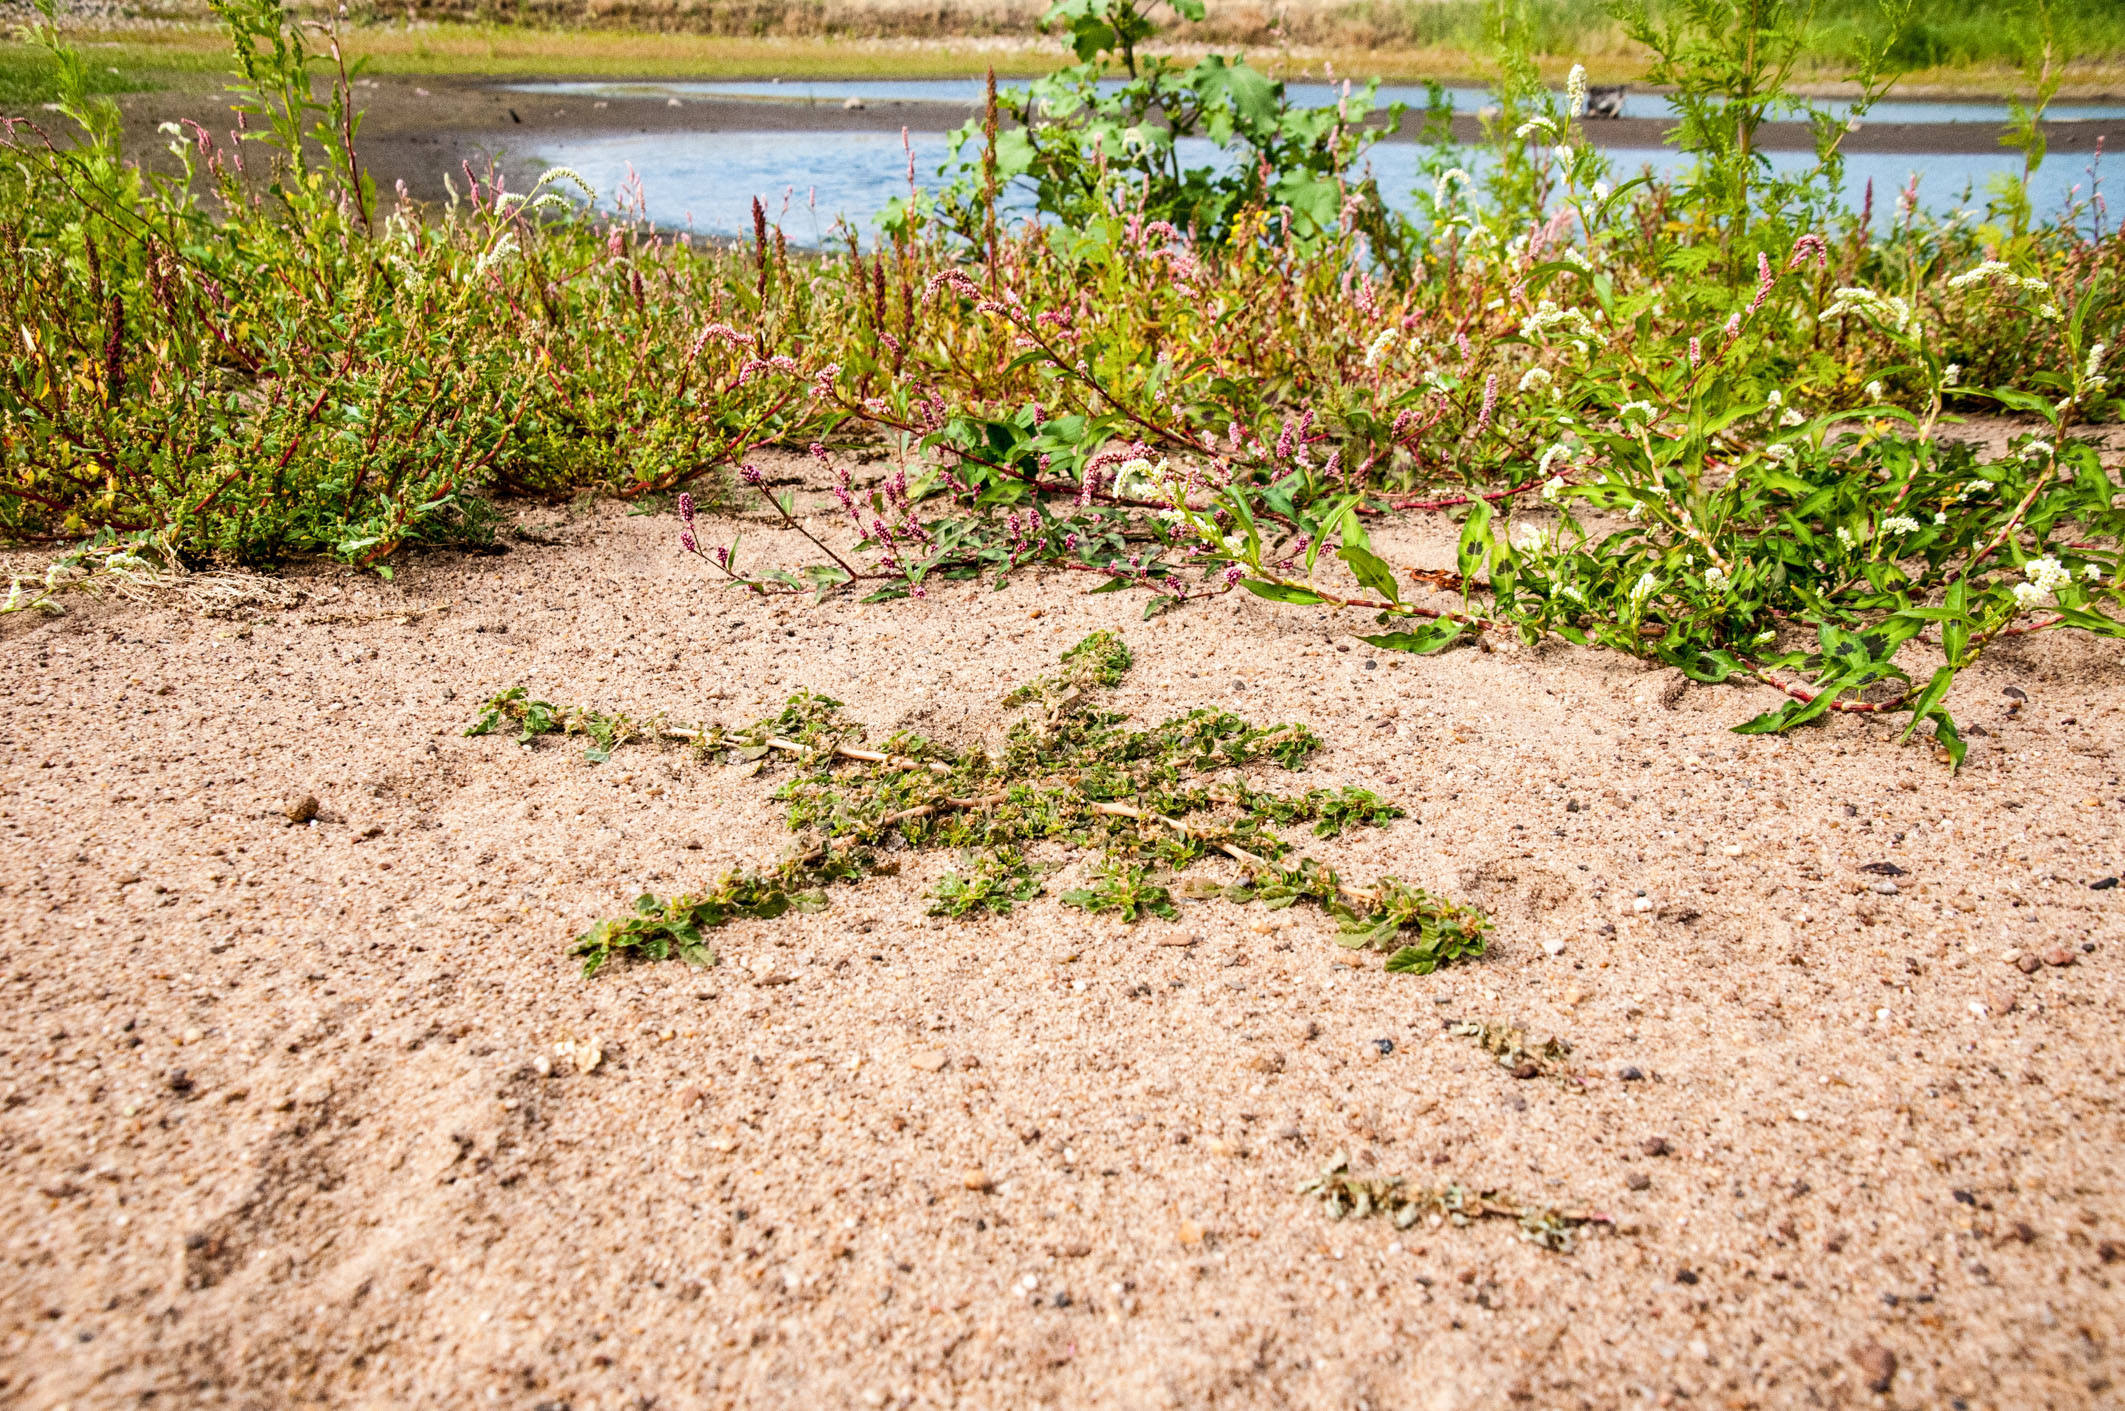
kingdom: Plantae
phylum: Tracheophyta
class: Magnoliopsida
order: Caryophyllales
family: Amaranthaceae
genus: Amaranthus
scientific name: Amaranthus emarginatus
